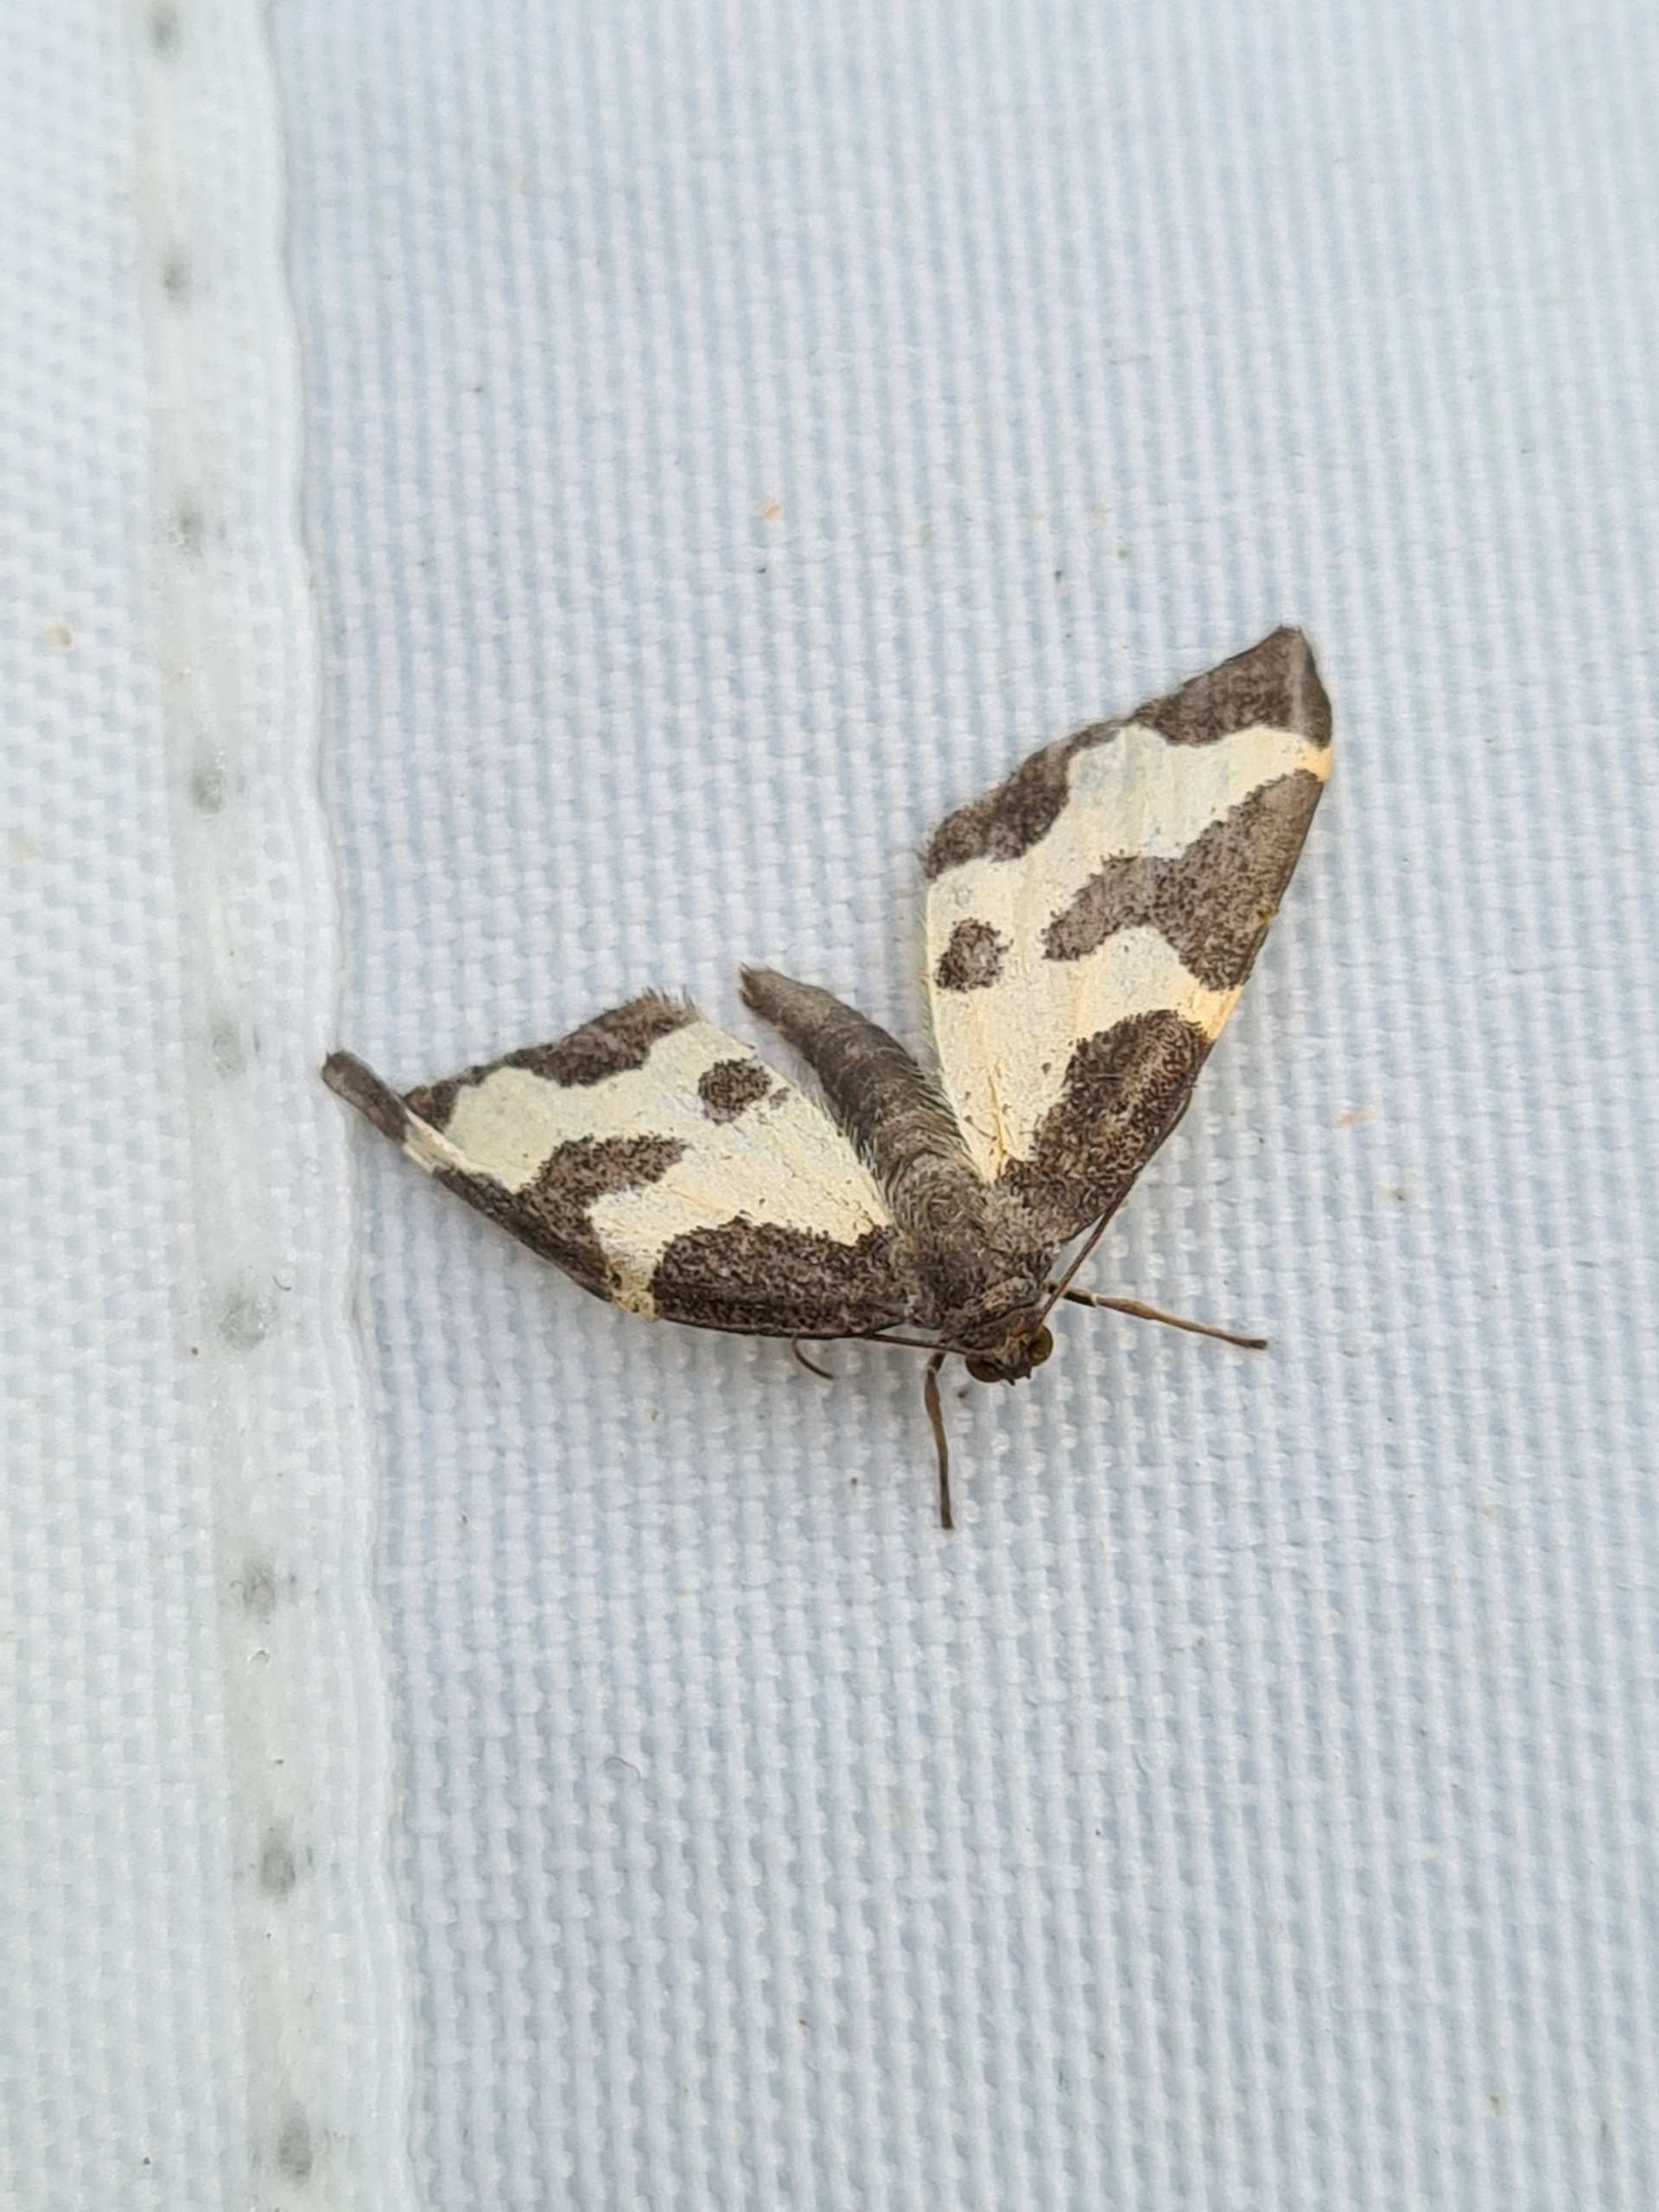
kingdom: Animalia
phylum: Arthropoda
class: Insecta
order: Lepidoptera
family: Geometridae
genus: Lomaspilis
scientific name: Lomaspilis marginata
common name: Sortrandet måler
